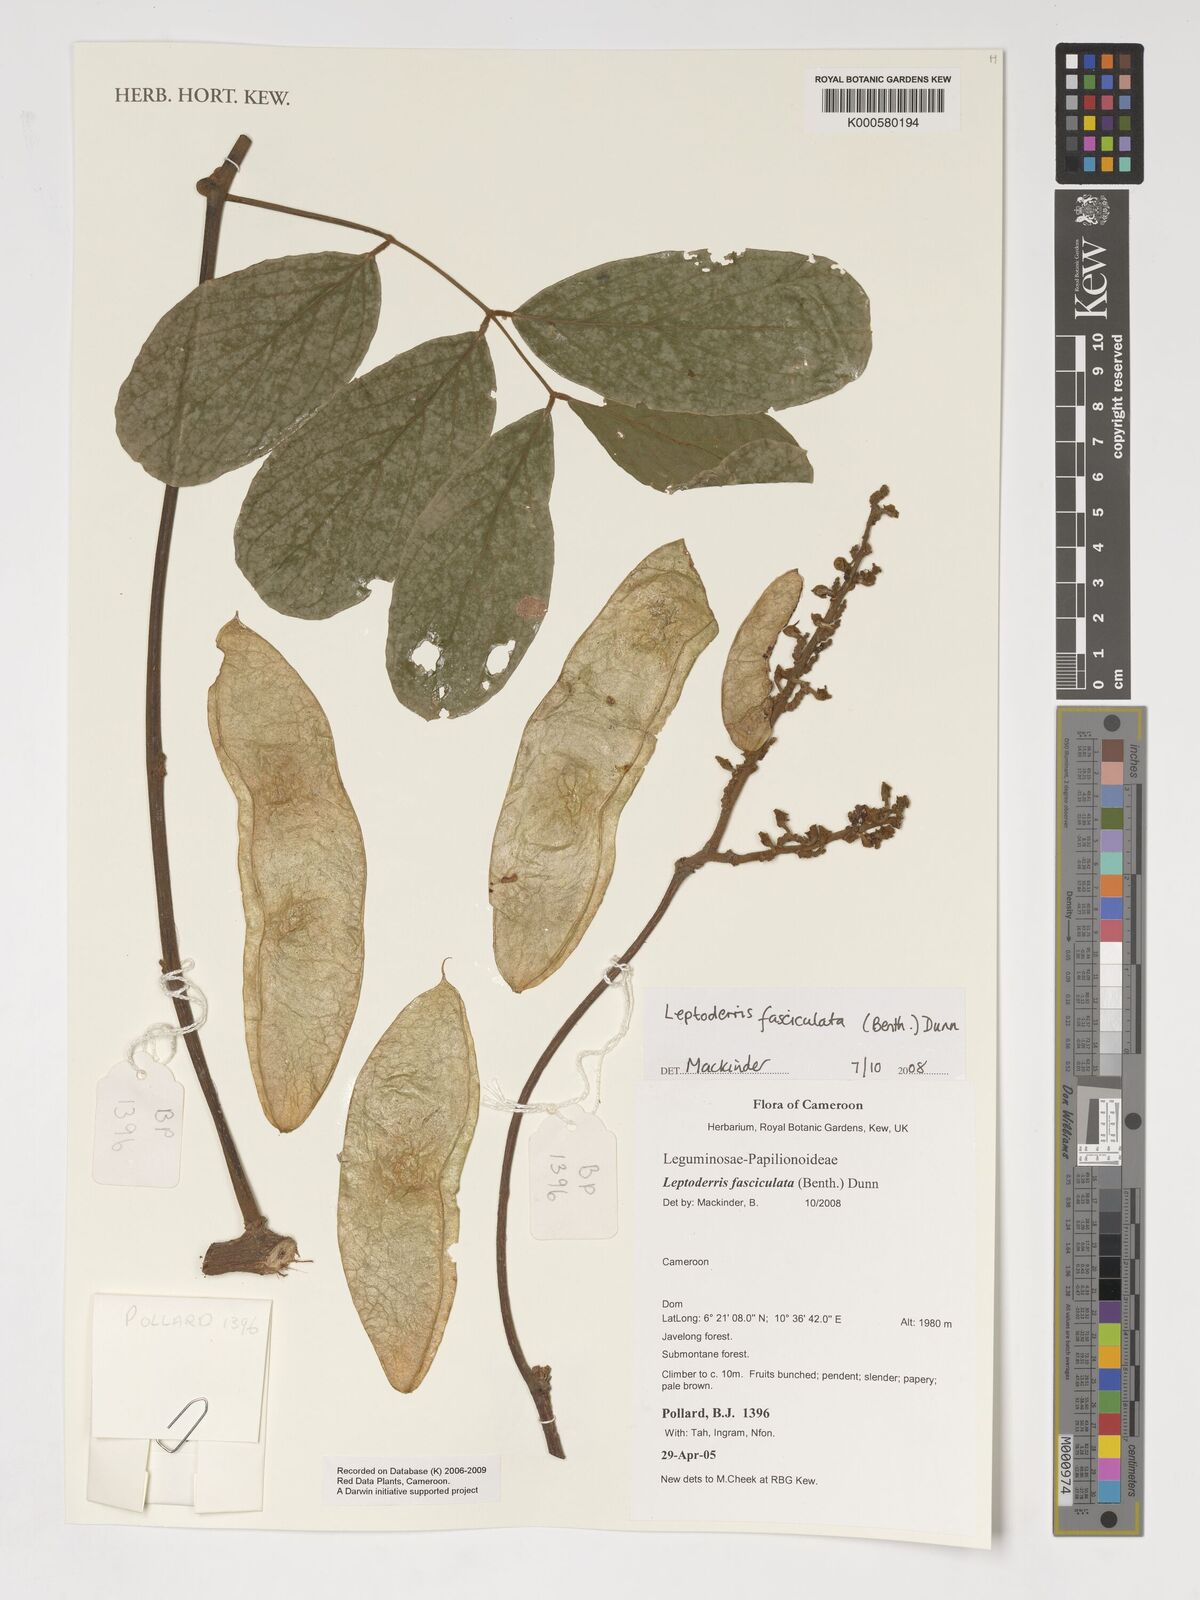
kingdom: Plantae
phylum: Tracheophyta
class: Magnoliopsida
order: Fabales
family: Fabaceae
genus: Leptoderris
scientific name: Leptoderris fasciculata
